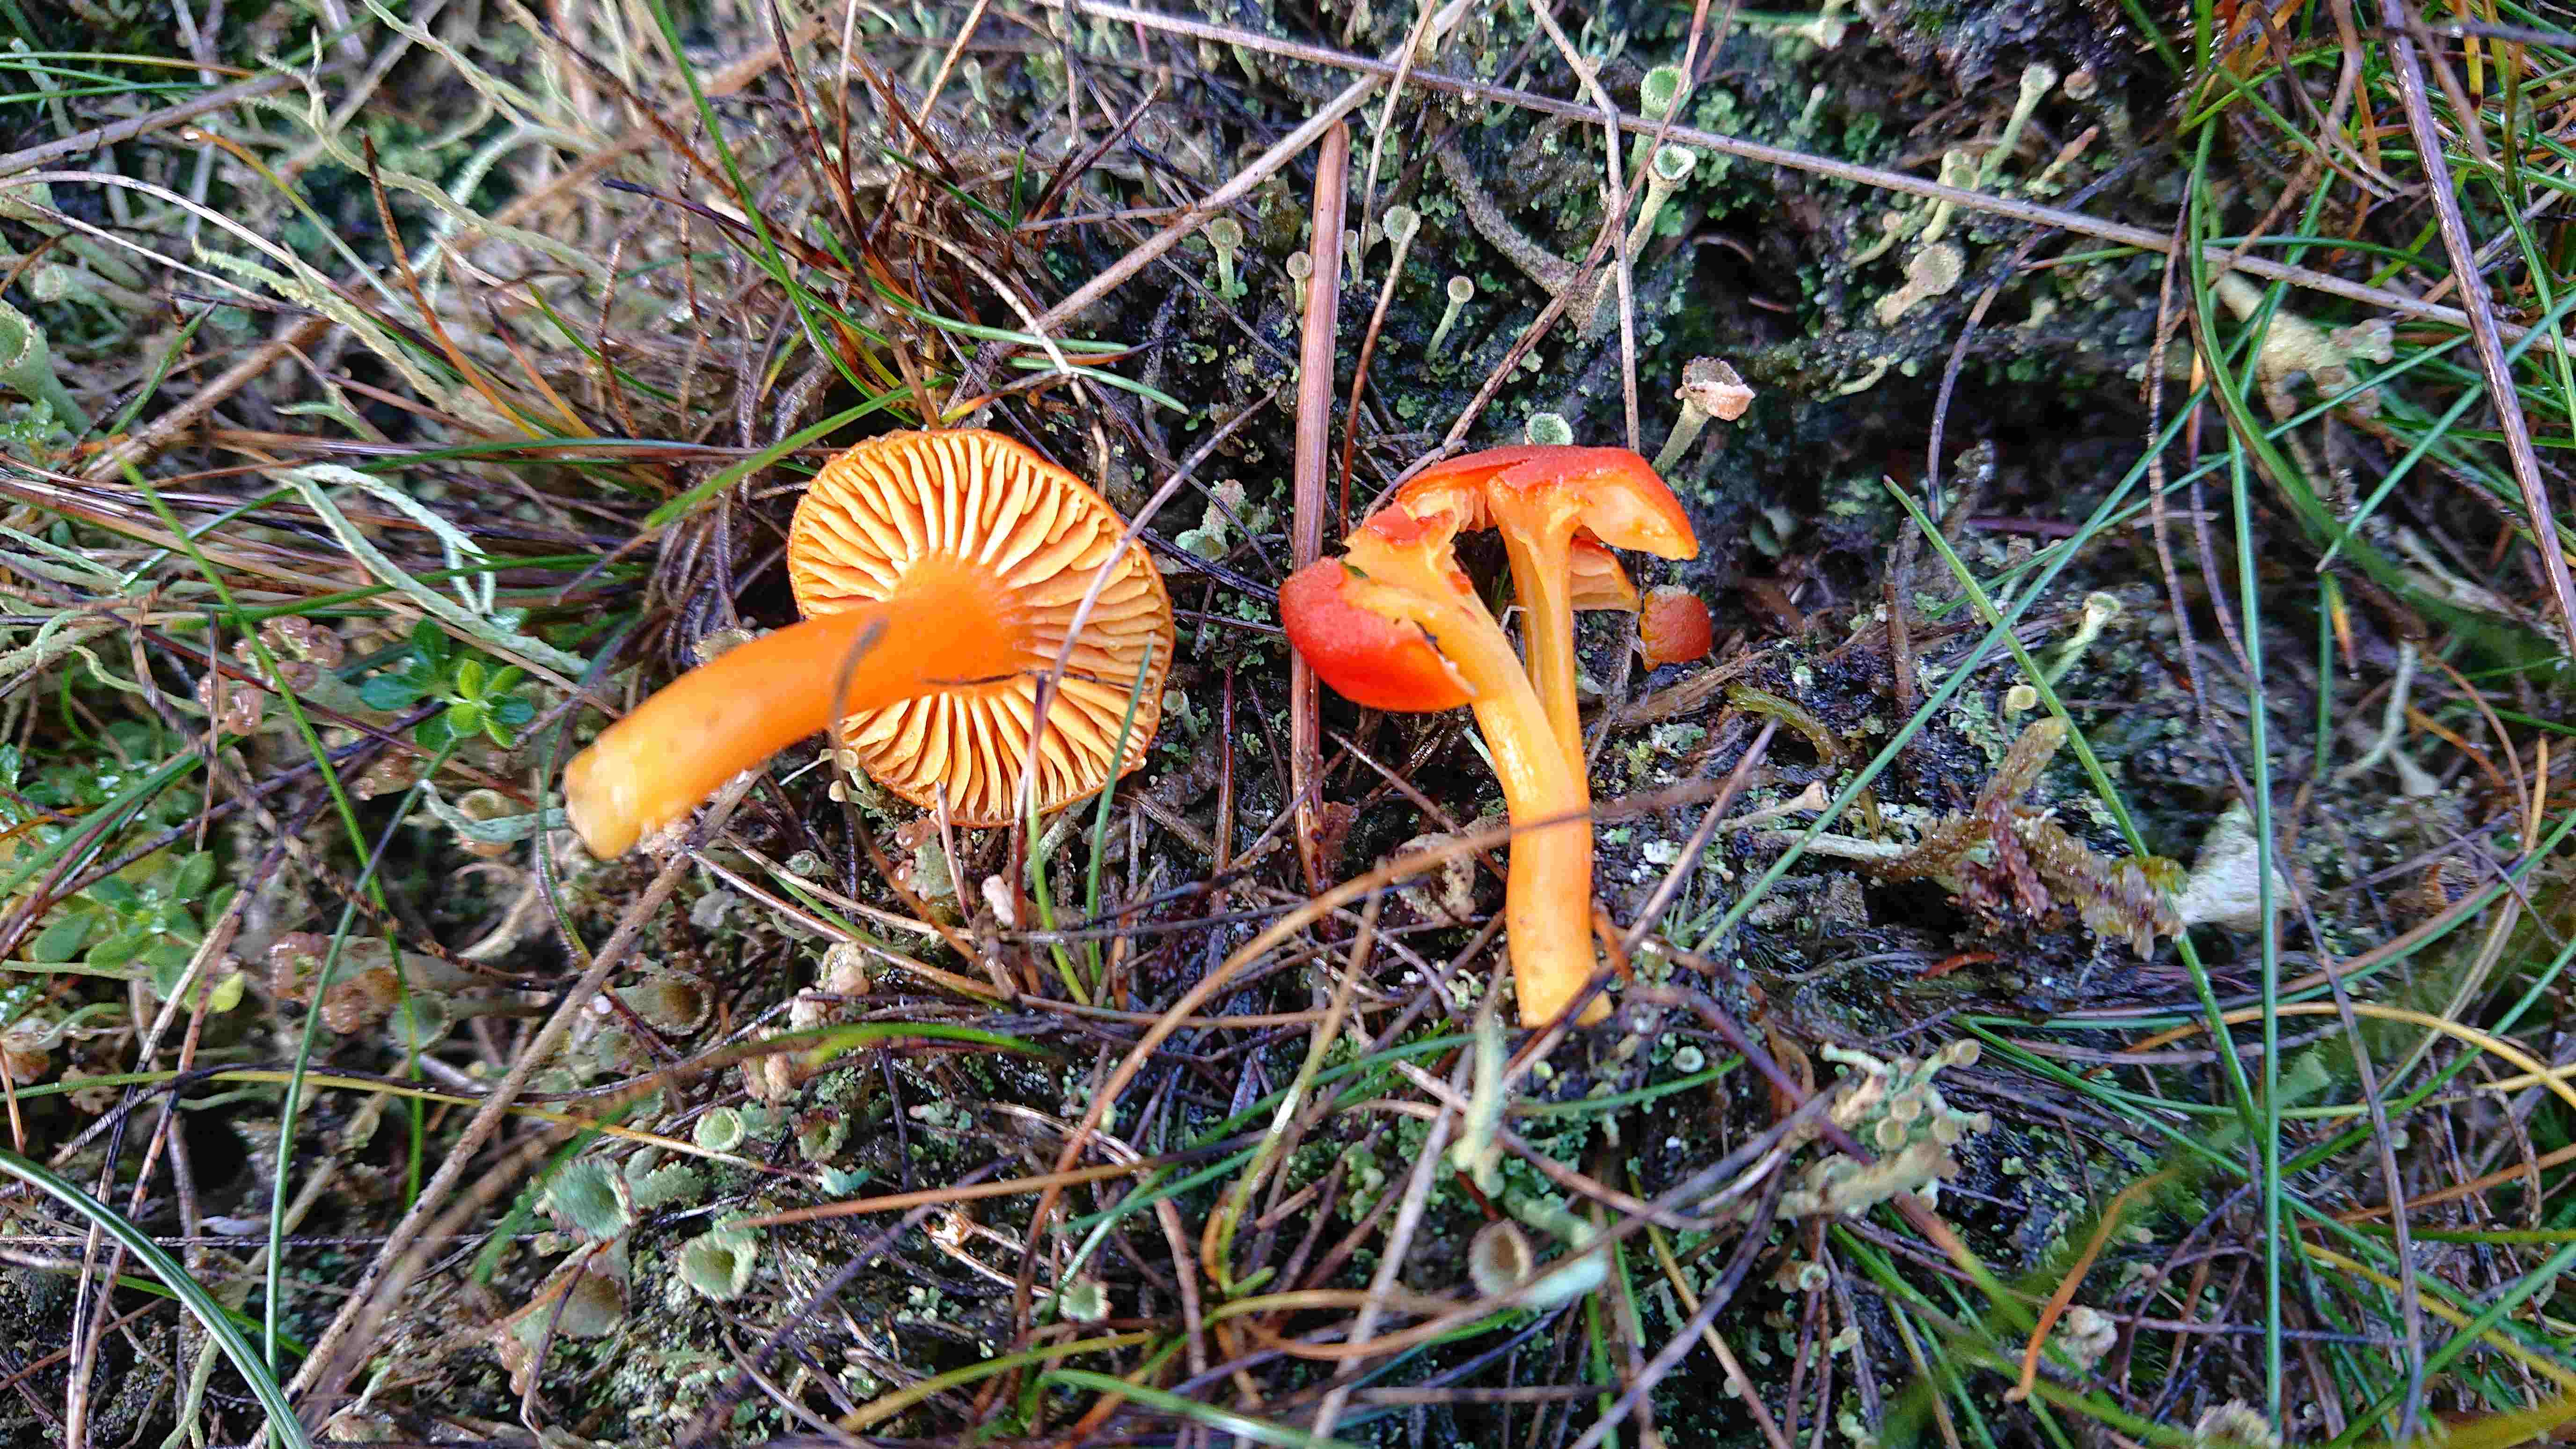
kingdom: Fungi
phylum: Basidiomycota
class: Agaricomycetes
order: Agaricales
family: Hygrophoraceae
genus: Hygrocybe
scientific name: Hygrocybe miniata
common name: mønje-vokshat
